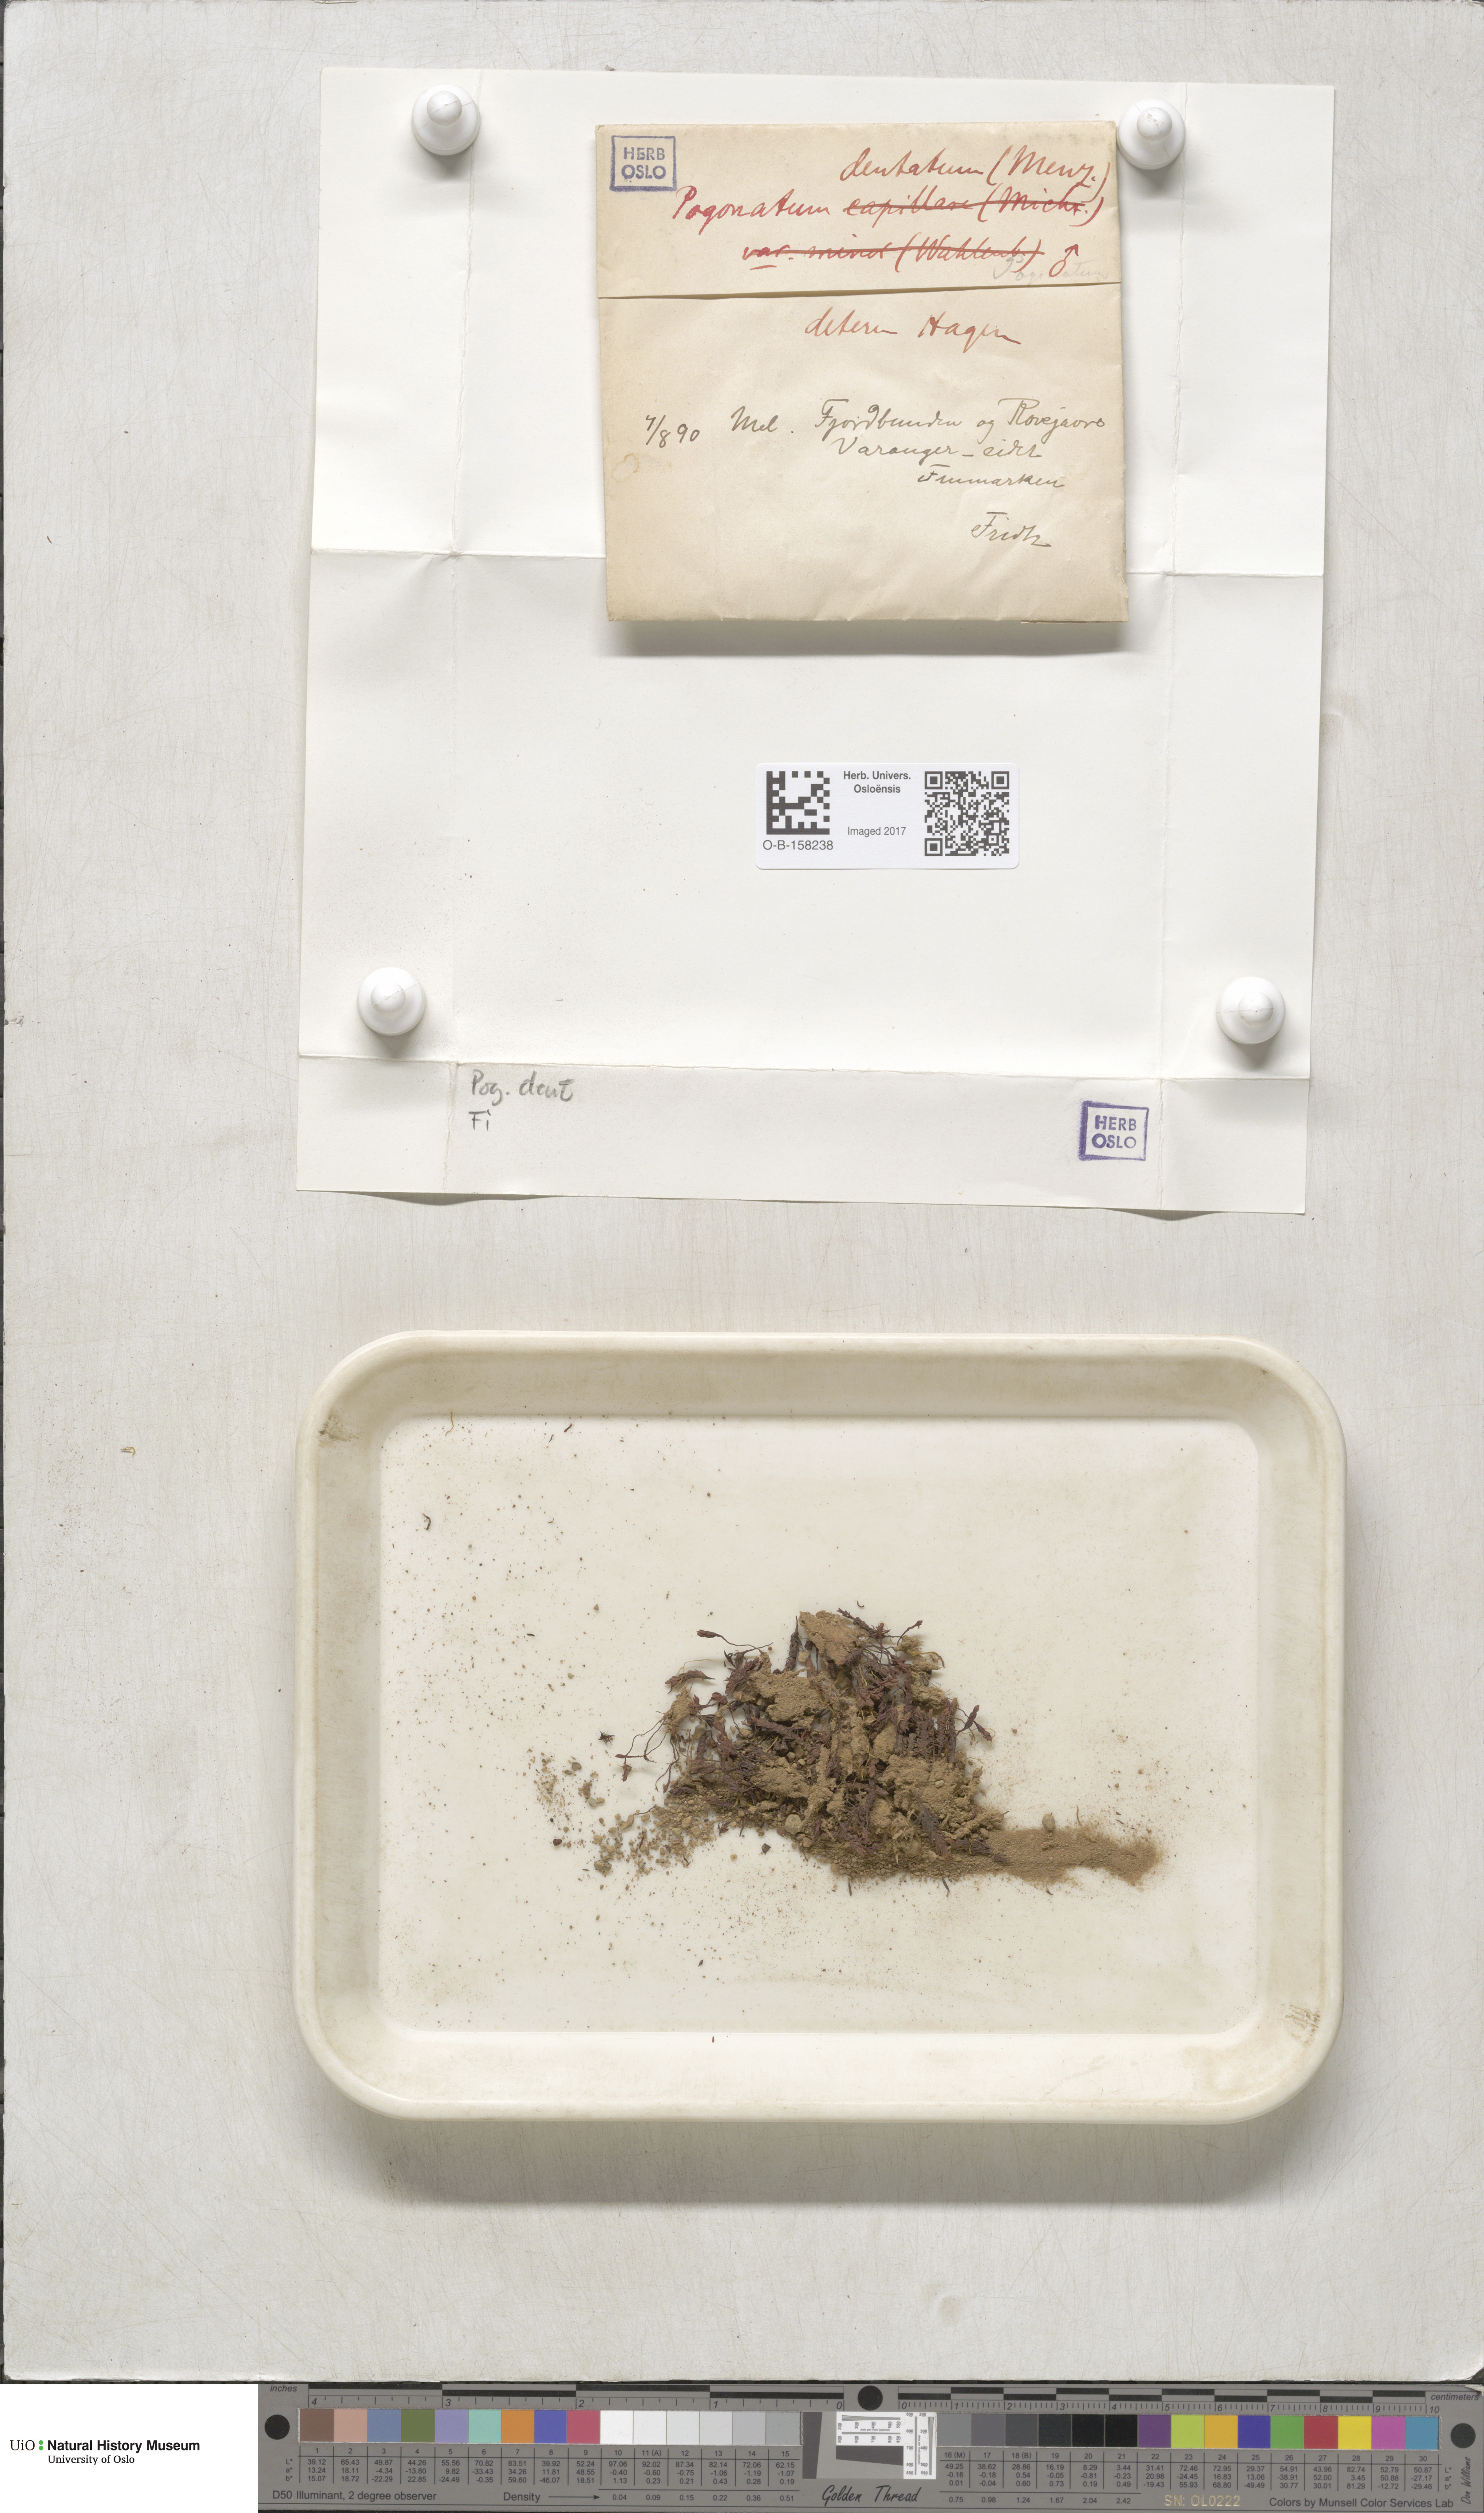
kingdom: Plantae
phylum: Bryophyta
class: Polytrichopsida
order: Polytrichales
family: Polytrichaceae
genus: Pogonatum
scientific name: Pogonatum dentatum
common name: Mountain hair moss
